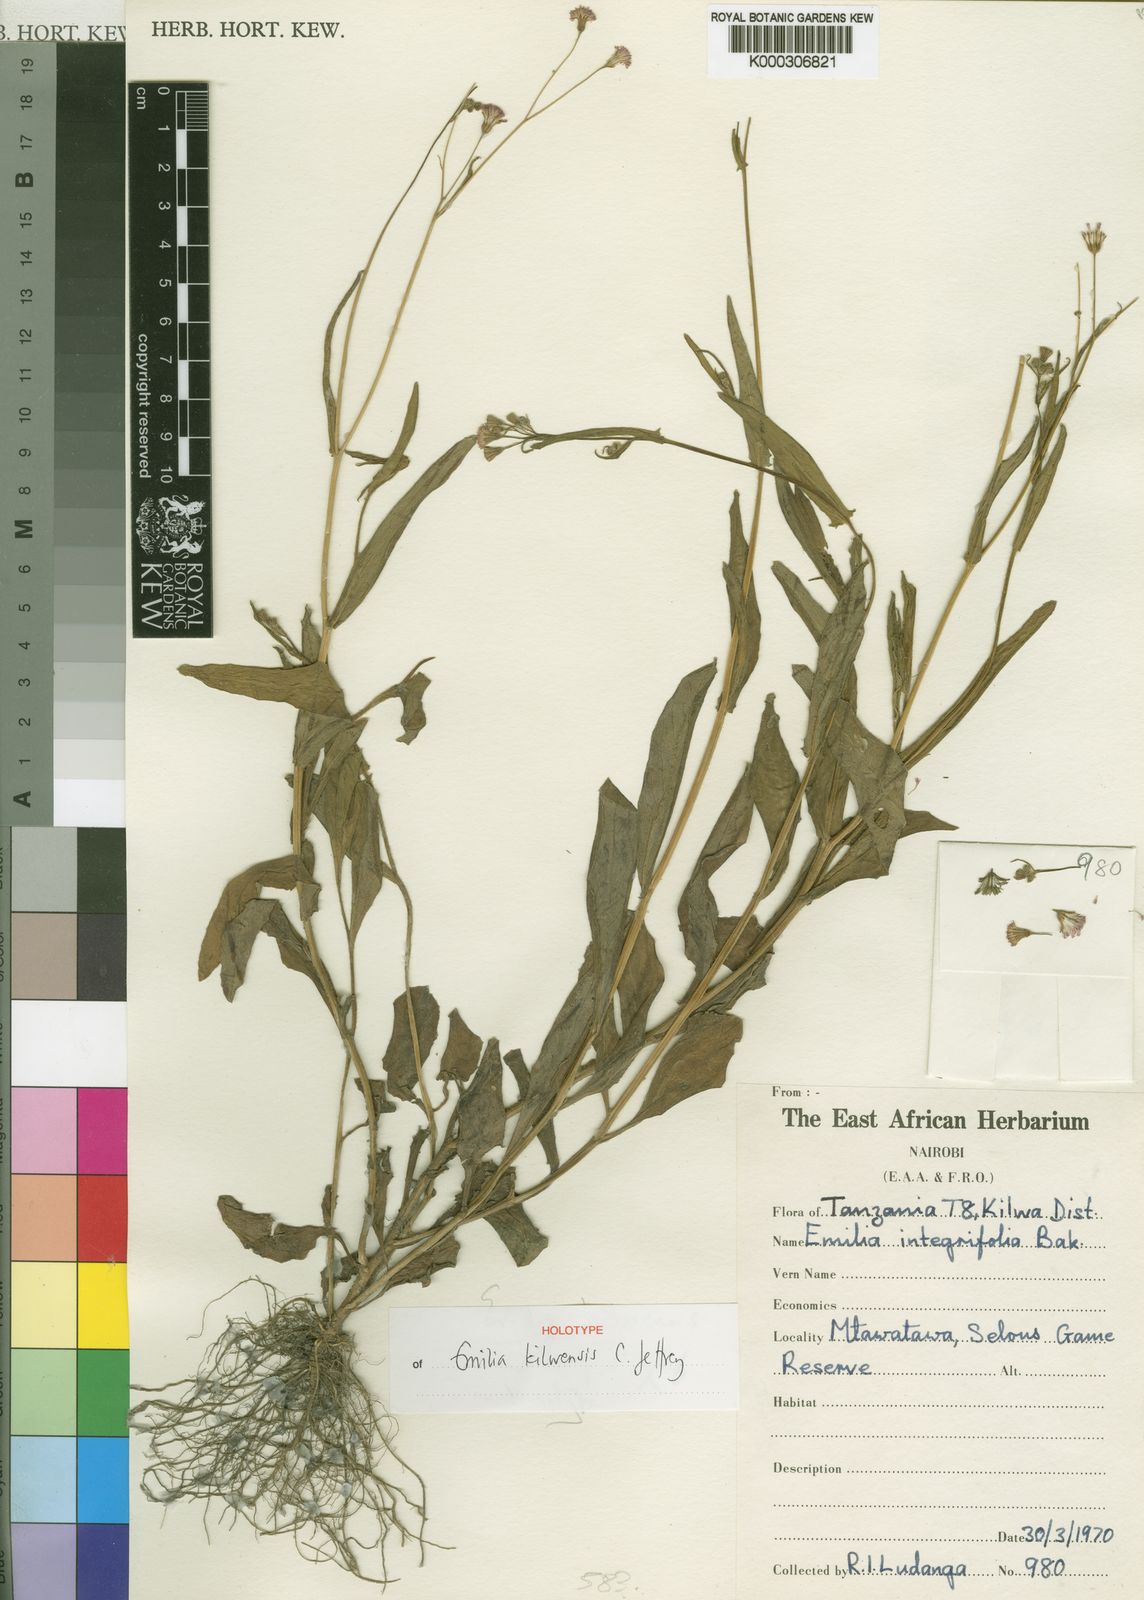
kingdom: Plantae
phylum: Tracheophyta
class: Magnoliopsida
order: Asterales
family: Asteraceae
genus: Emilia
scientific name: Emilia kilwensis
